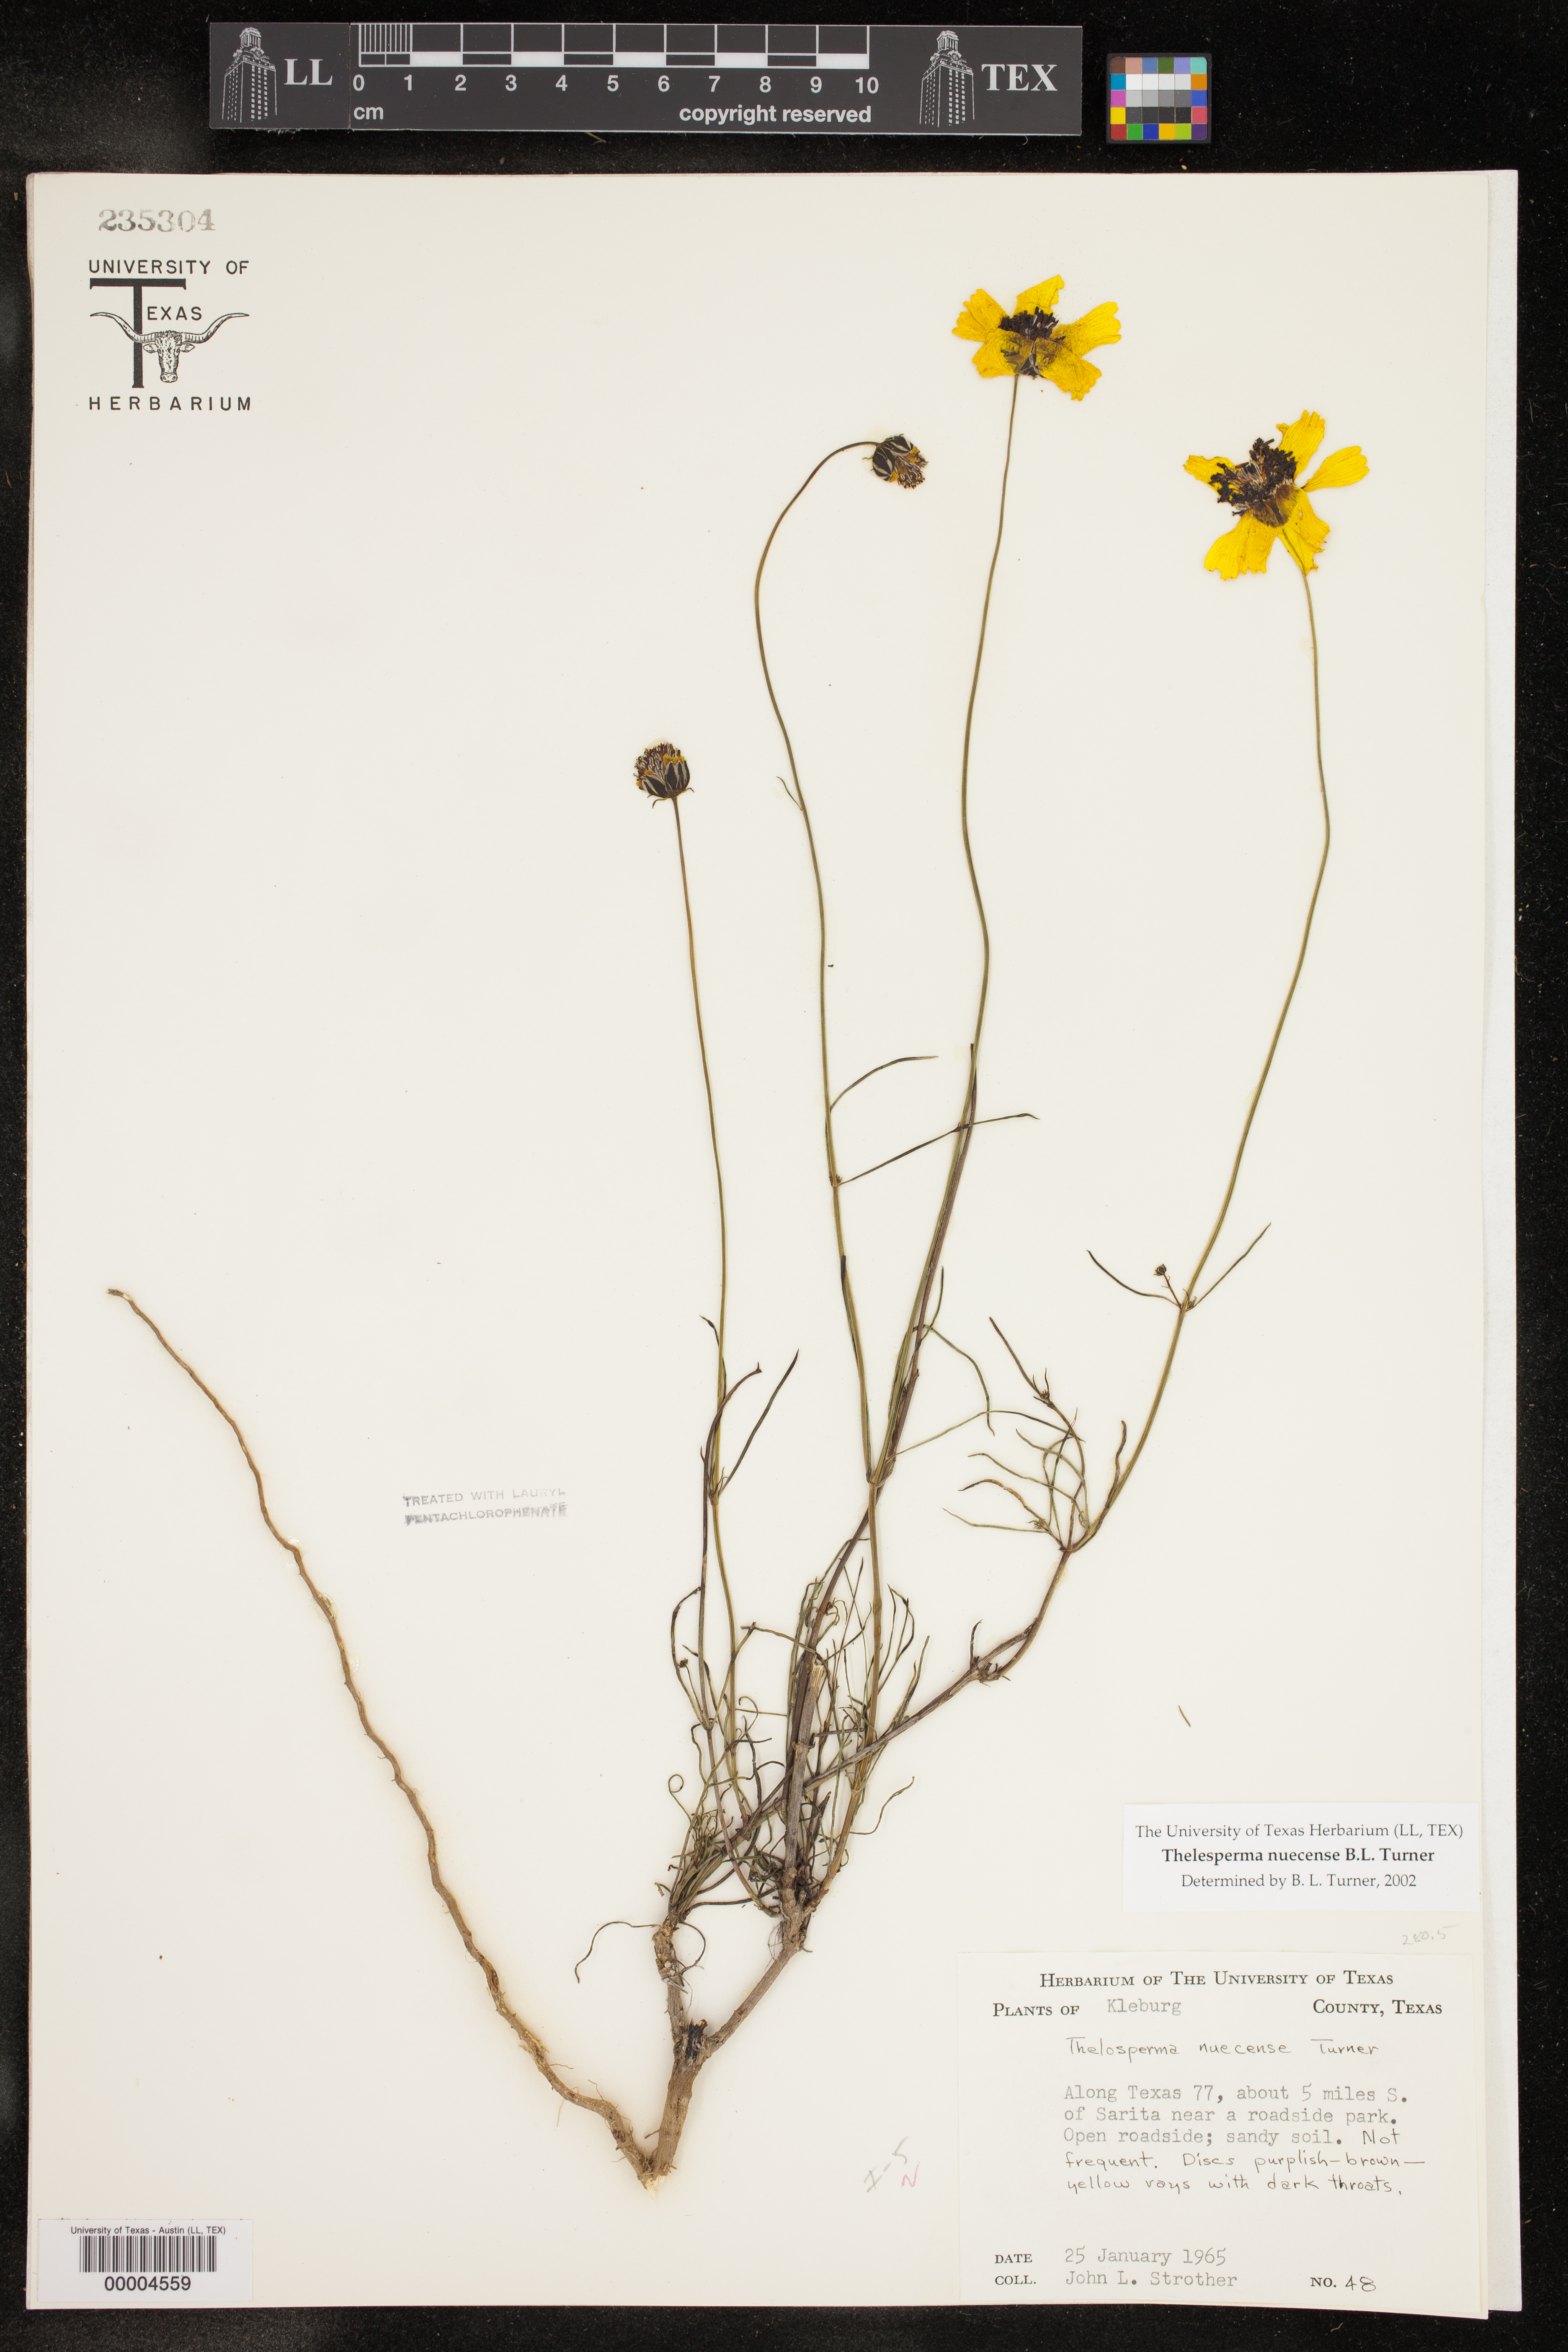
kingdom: Plantae
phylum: Tracheophyta
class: Magnoliopsida
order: Asterales
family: Asteraceae
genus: Thelesperma
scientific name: Thelesperma nuecense
